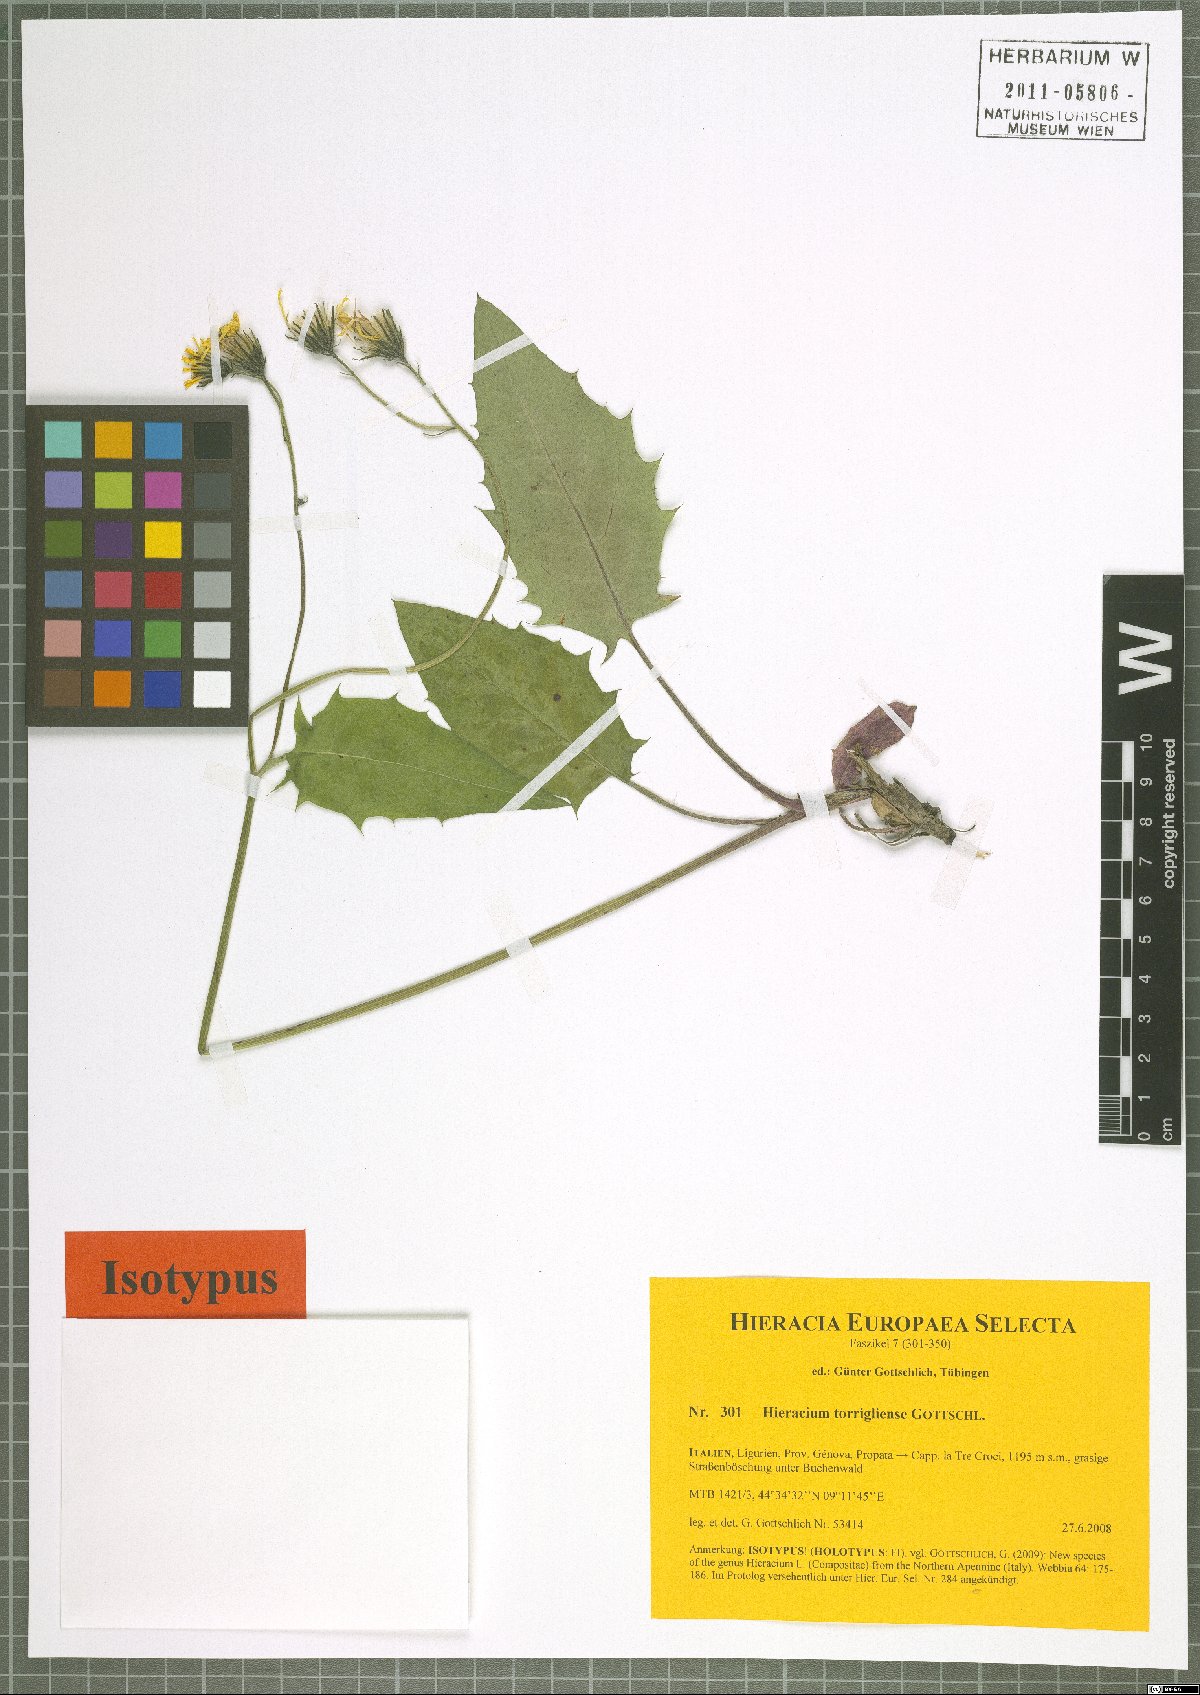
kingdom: Plantae
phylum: Tracheophyta
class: Magnoliopsida
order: Asterales
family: Asteraceae
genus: Hieracium
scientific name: Hieracium torrigliense
